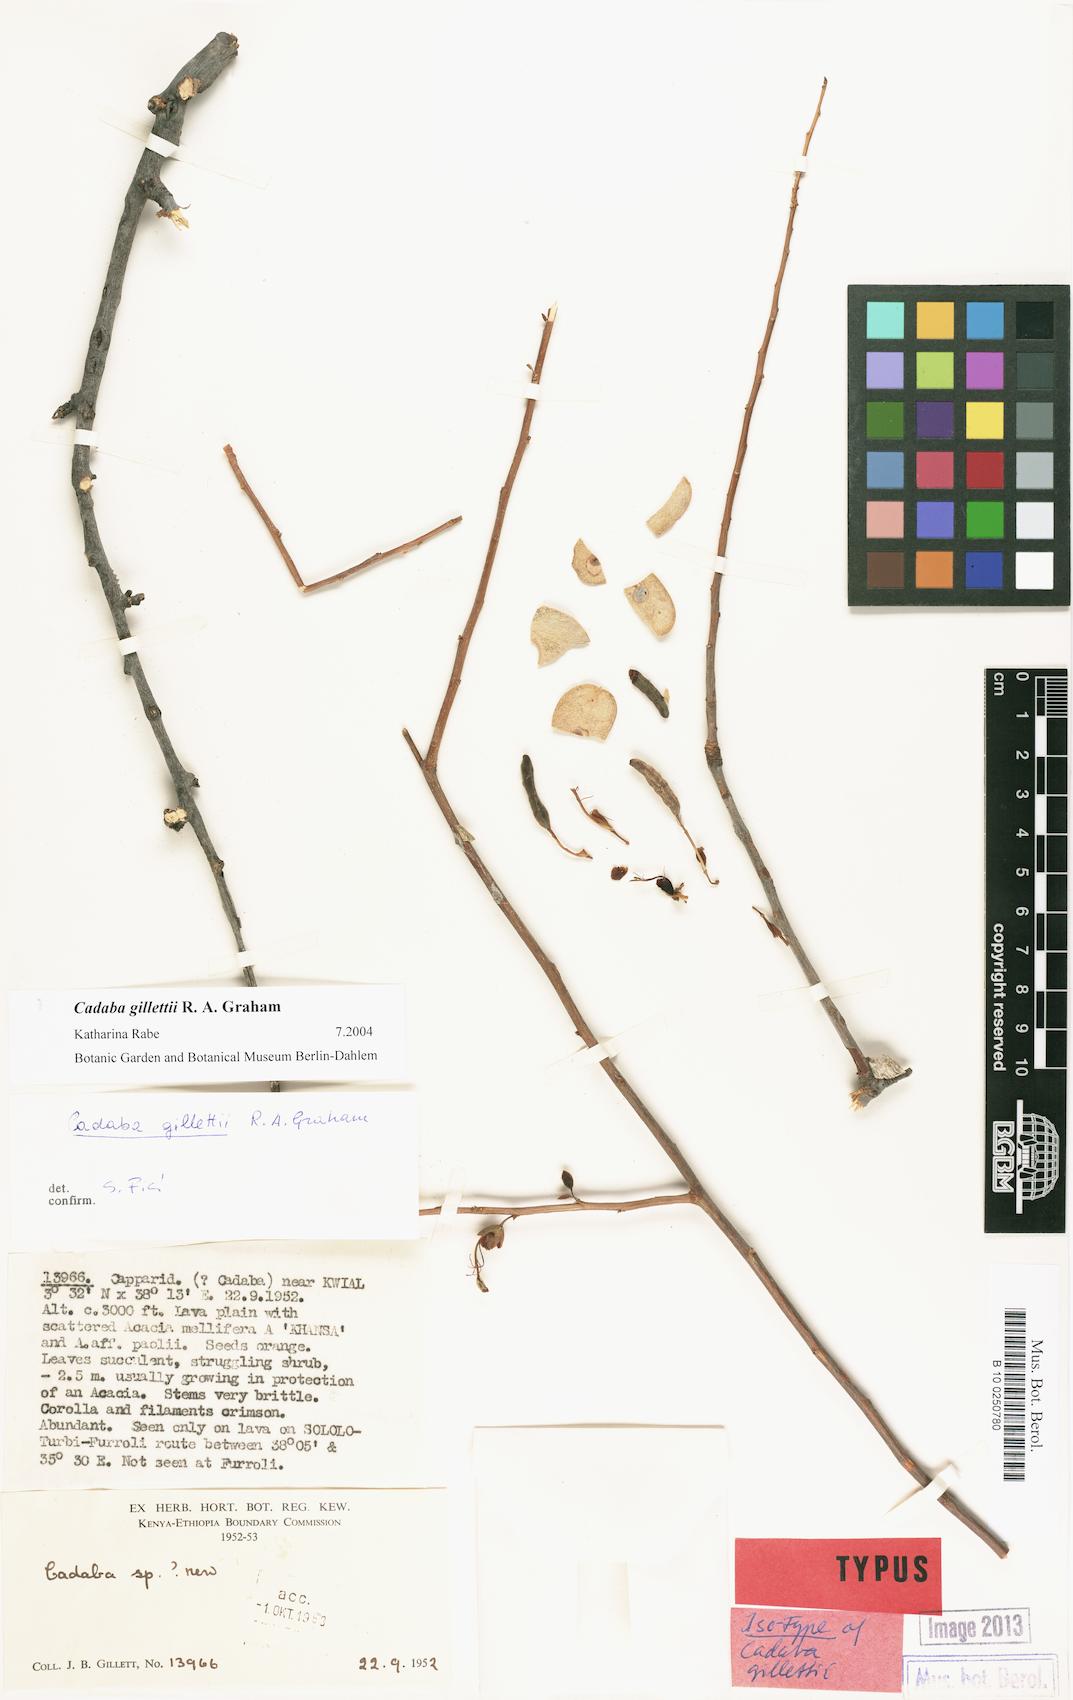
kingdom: Plantae
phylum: Tracheophyta
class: Magnoliopsida
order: Brassicales
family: Capparaceae
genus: Cadaba
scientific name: Cadaba gillettii
